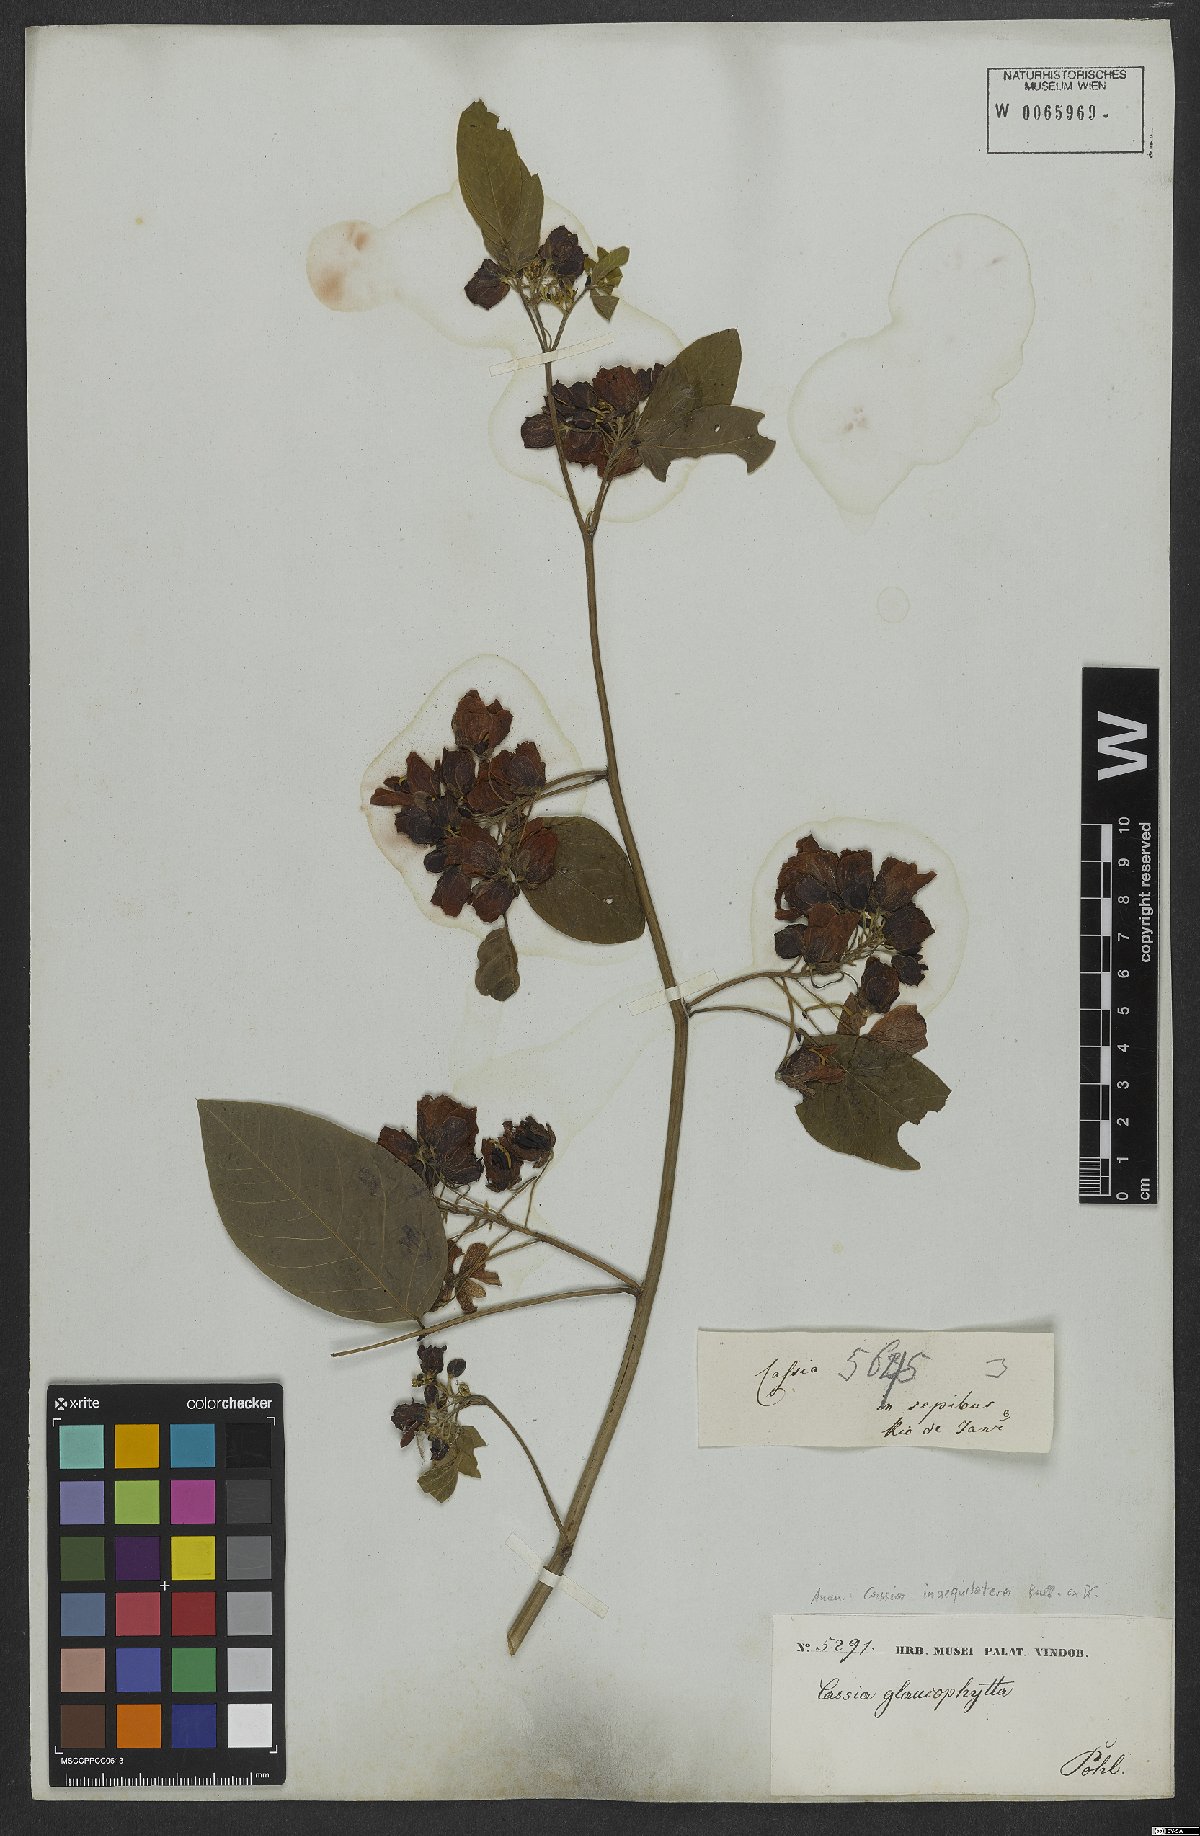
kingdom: Plantae
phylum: Tracheophyta
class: Magnoliopsida
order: Fabales
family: Fabaceae
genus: Senna
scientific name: Senna bacillaris
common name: West indian showertree
